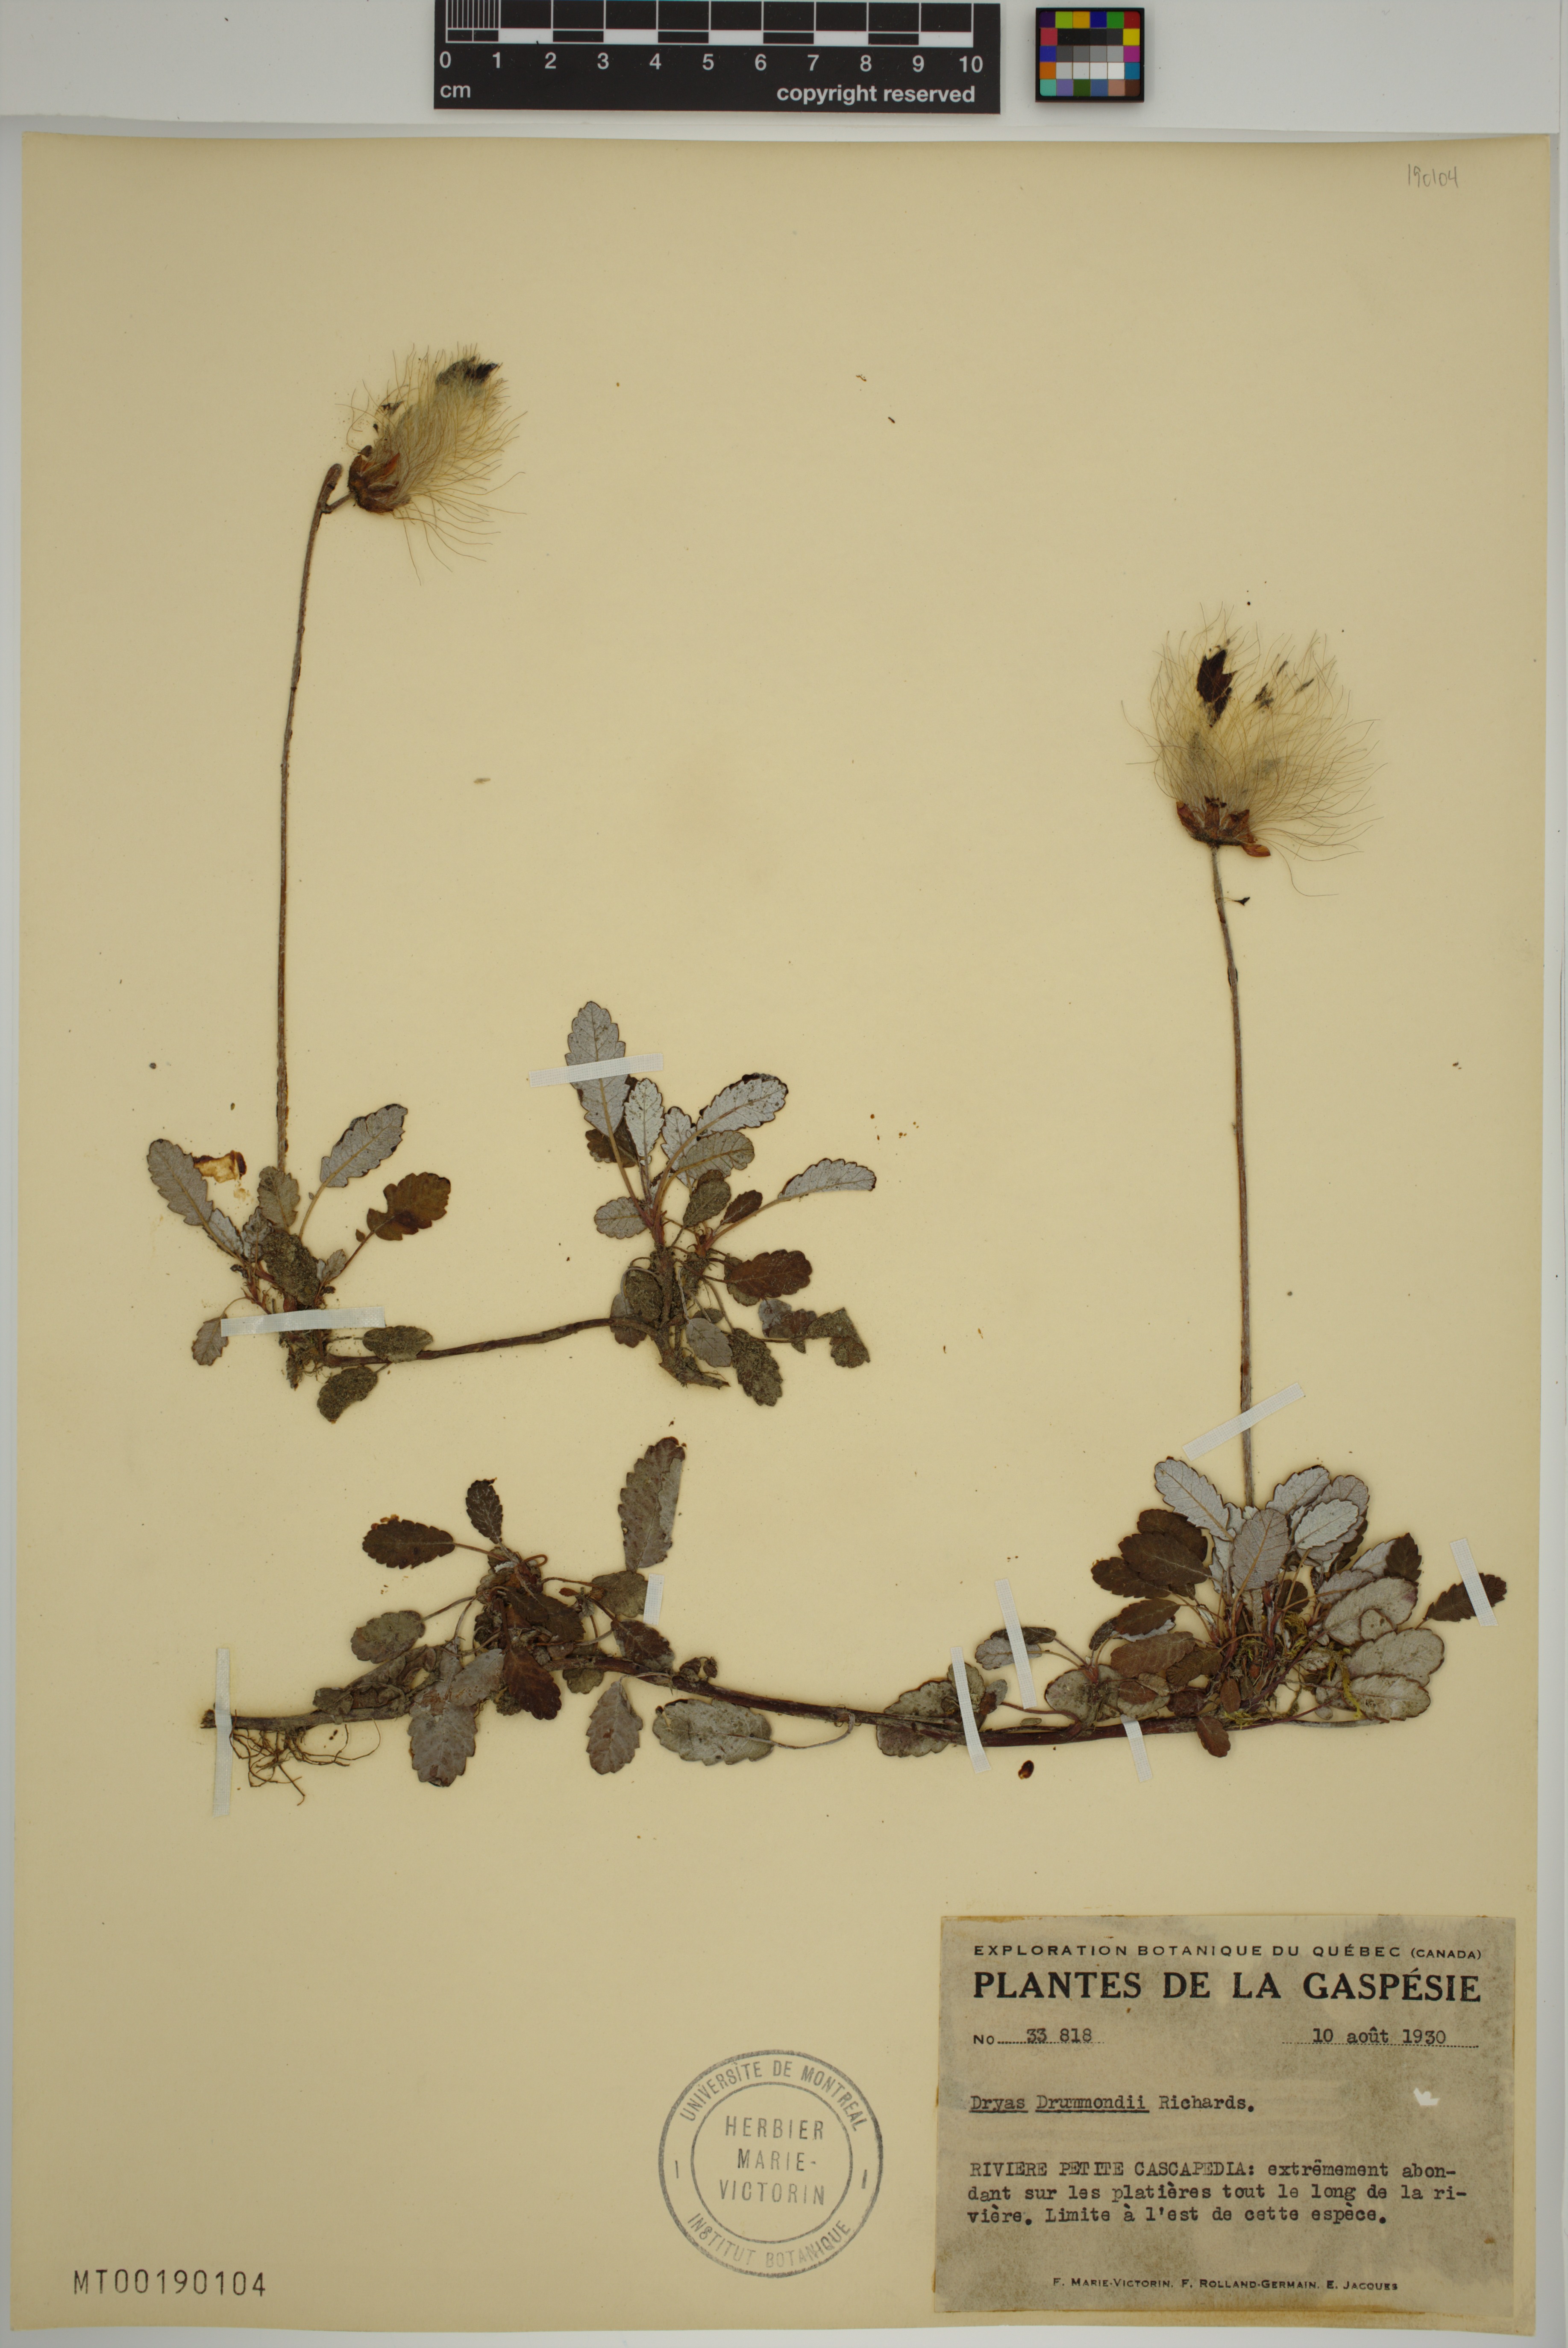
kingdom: Plantae
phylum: Tracheophyta
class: Magnoliopsida
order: Rosales
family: Rosaceae
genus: Dryas
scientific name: Dryas drummondii
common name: Drummond's dryad
